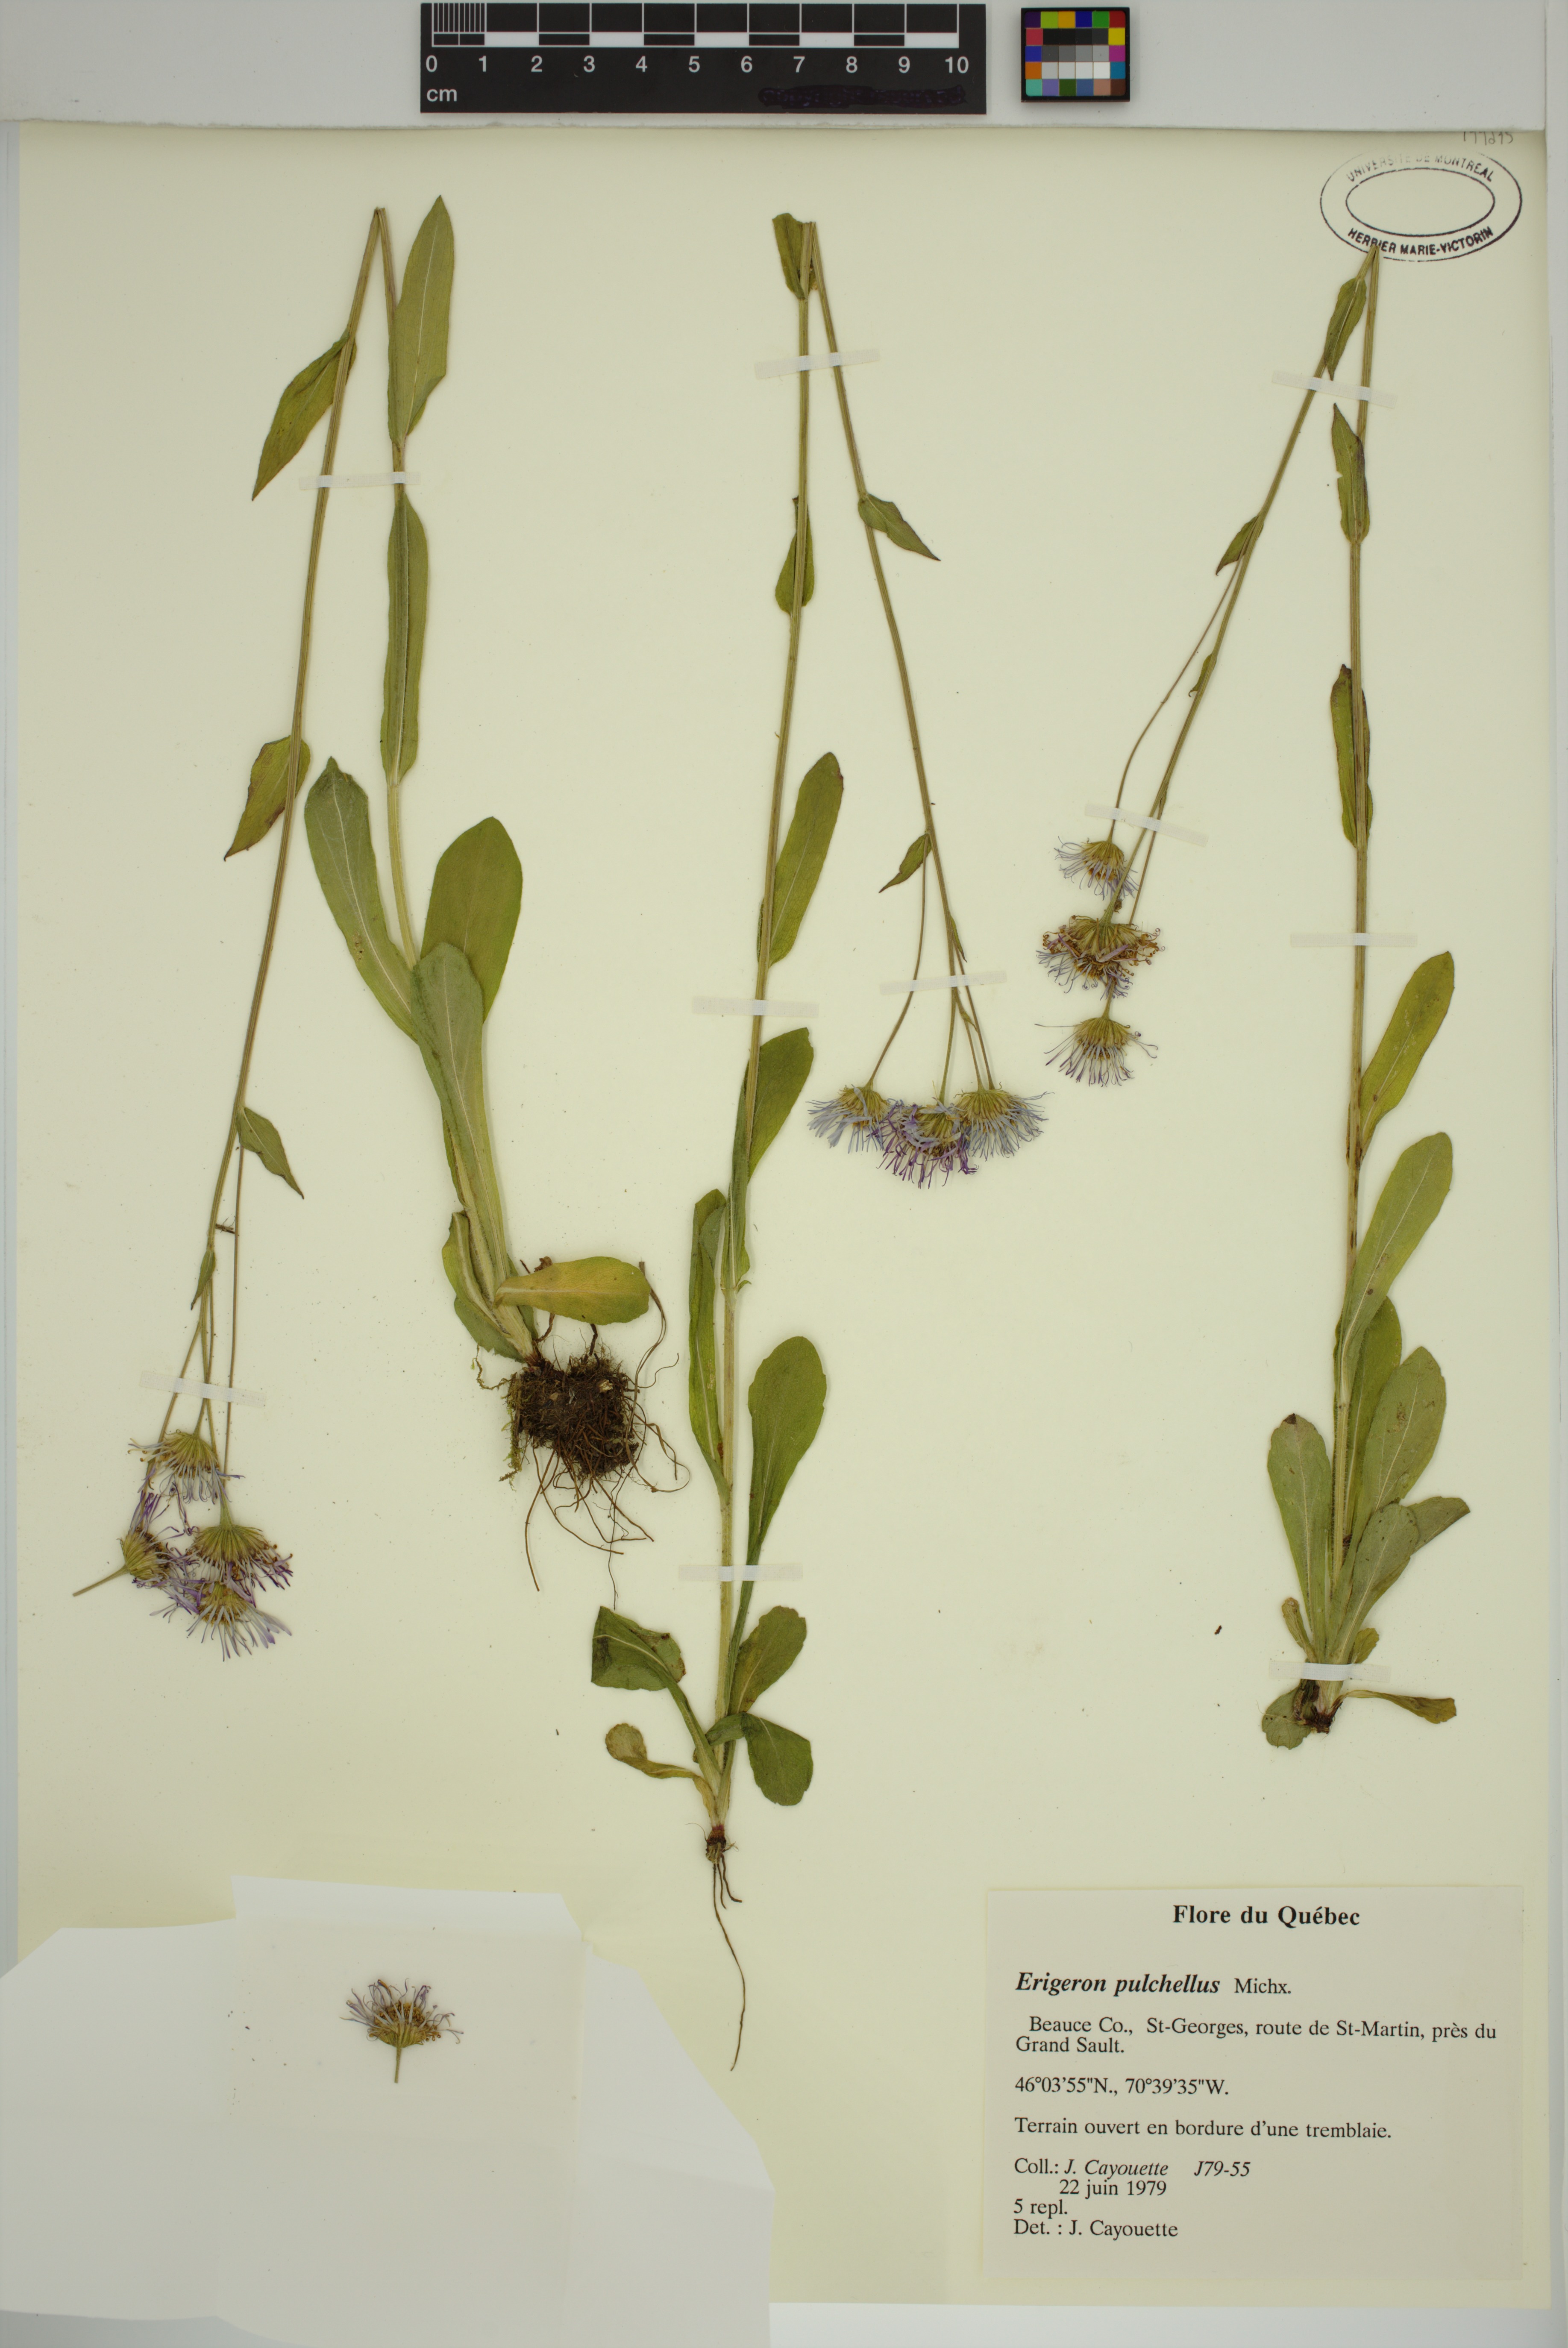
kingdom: Plantae
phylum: Tracheophyta
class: Magnoliopsida
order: Asterales
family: Asteraceae
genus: Erigeron
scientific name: Erigeron pulchellus
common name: Hairy fleabane
